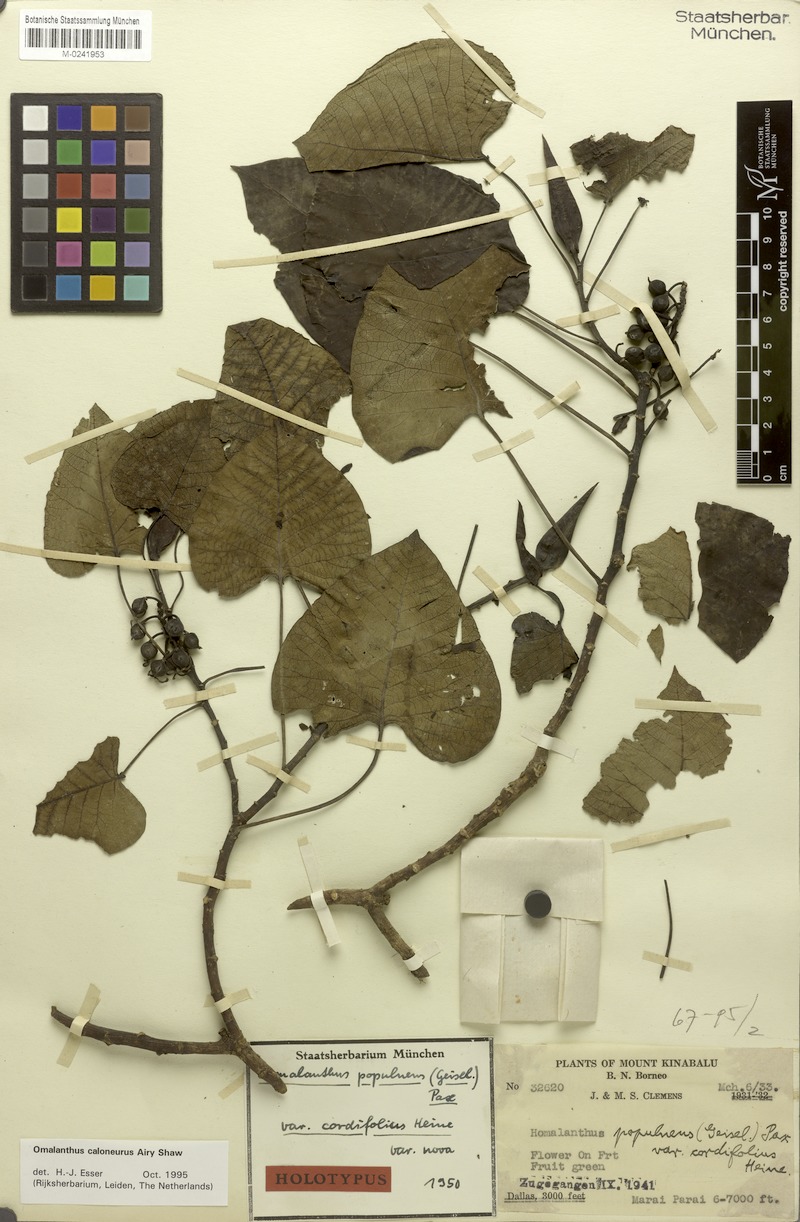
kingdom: Plantae
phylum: Tracheophyta
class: Magnoliopsida
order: Malpighiales
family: Euphorbiaceae
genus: Homalanthus
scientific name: Homalanthus caloneurus
